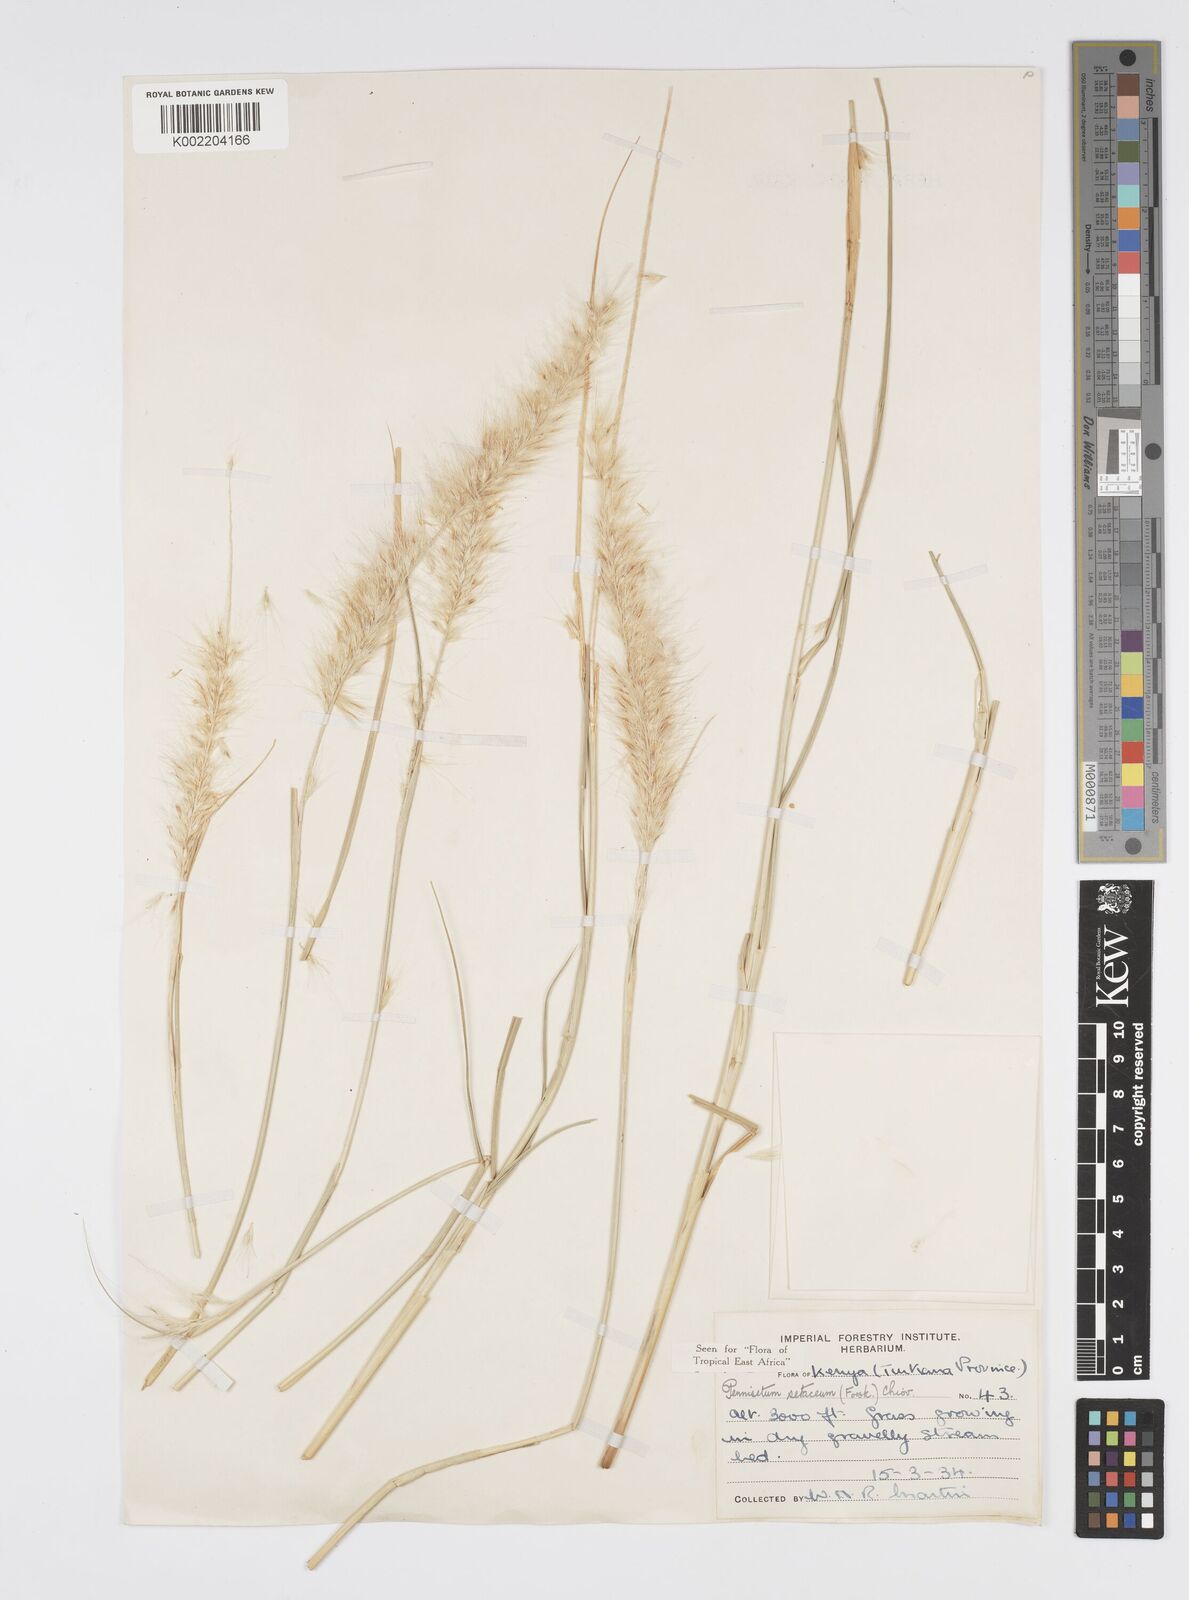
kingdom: Plantae
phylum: Tracheophyta
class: Liliopsida
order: Poales
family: Poaceae
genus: Cenchrus
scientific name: Cenchrus setaceus
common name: Crimson fountaingrass
